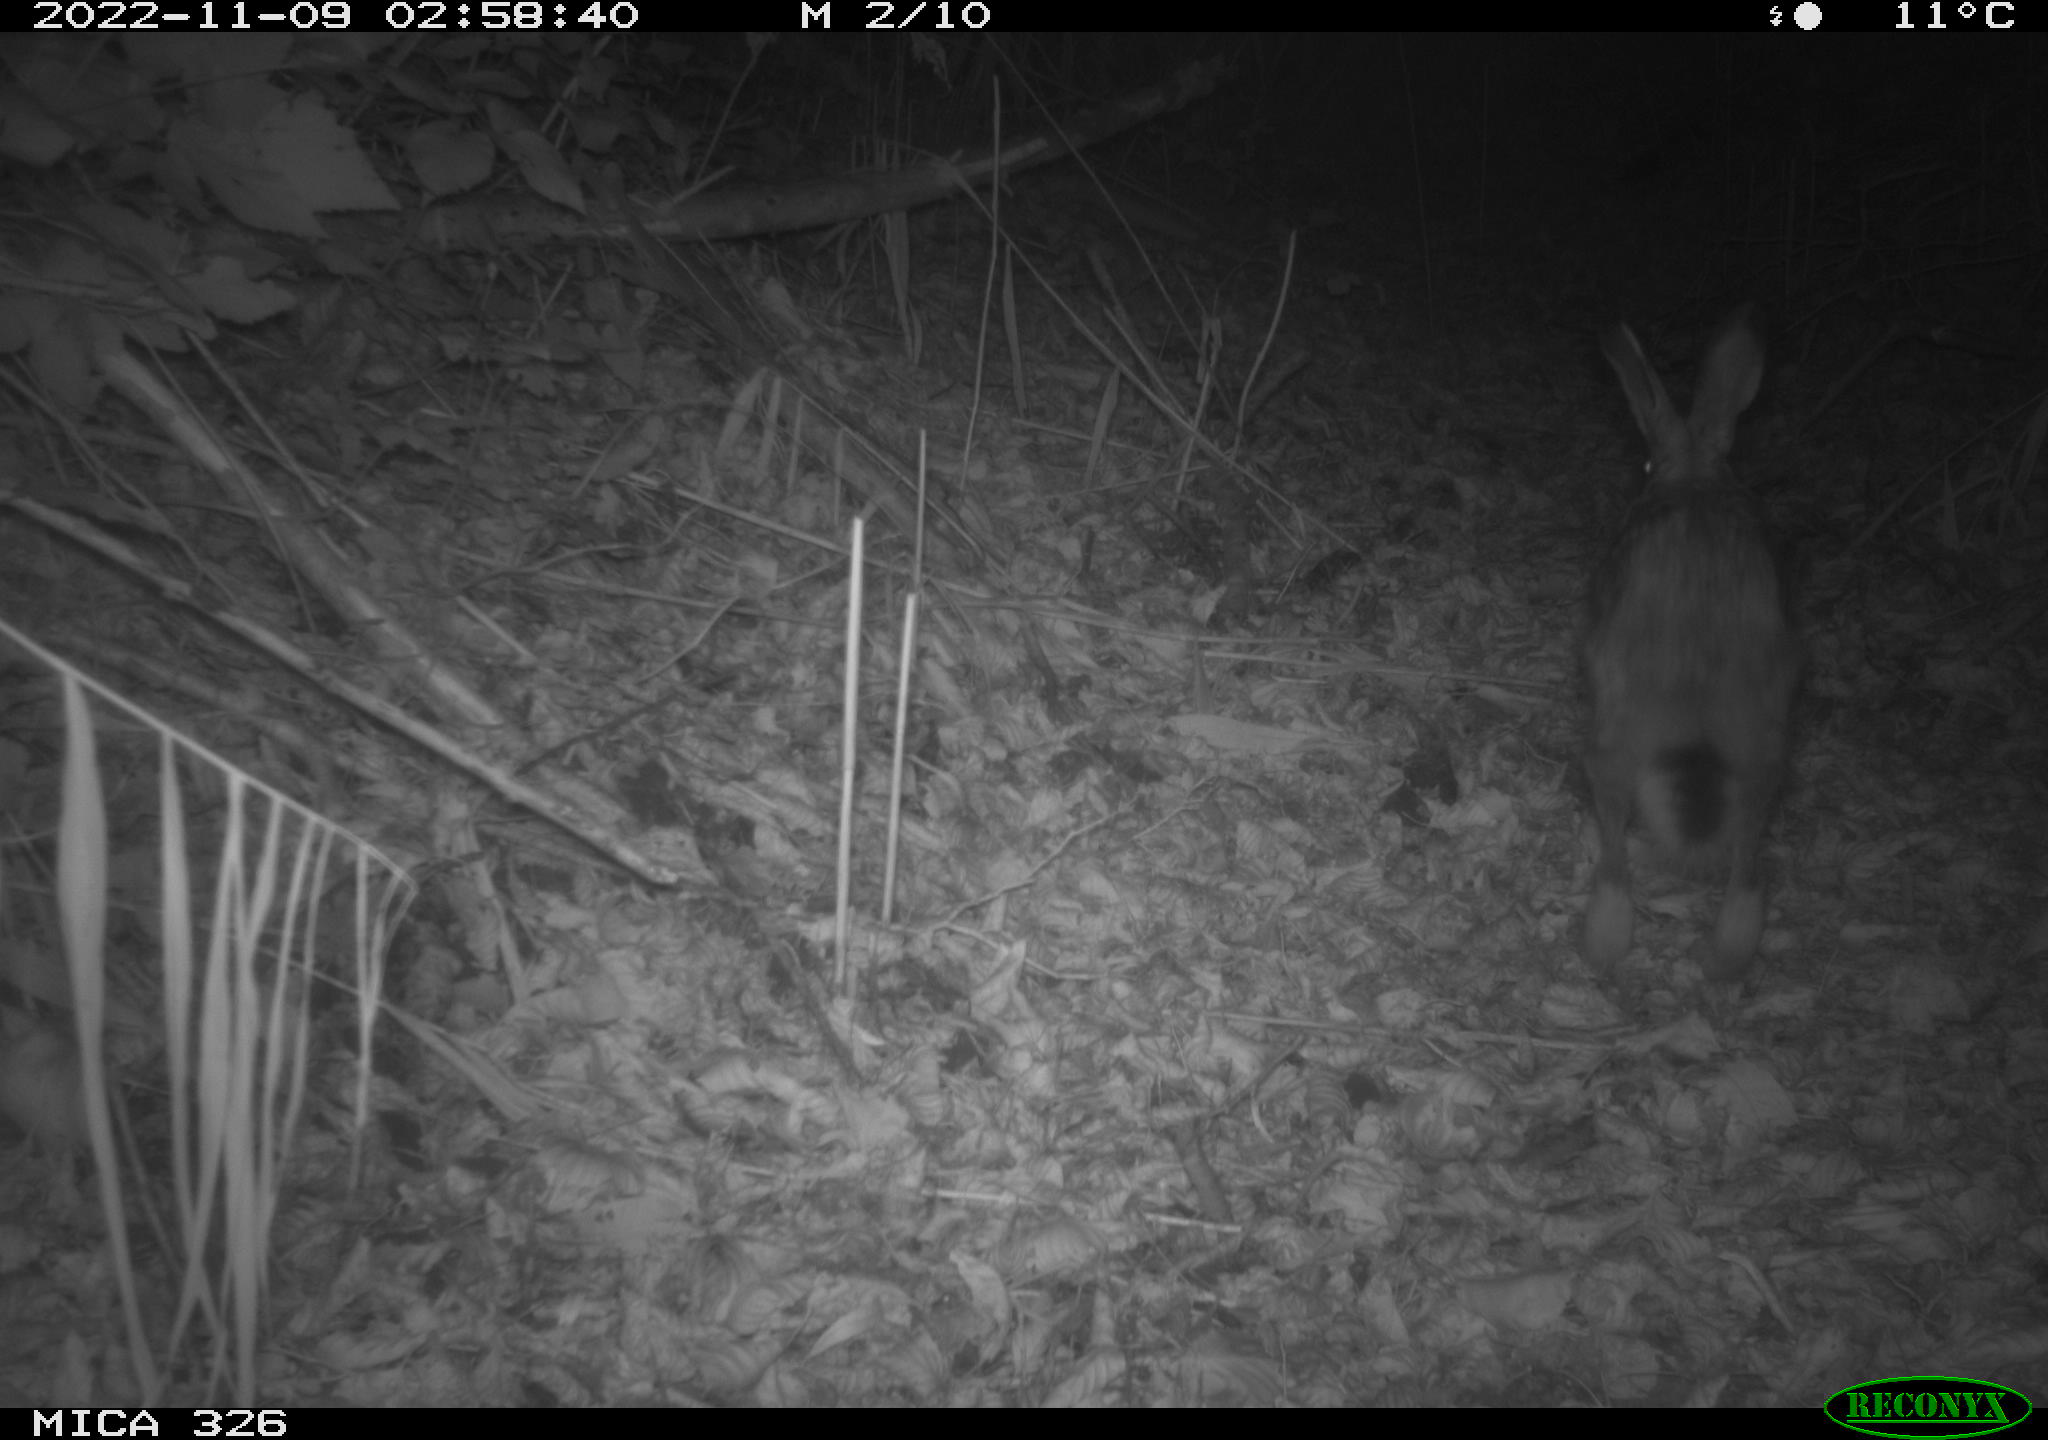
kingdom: Animalia
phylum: Chordata
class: Mammalia
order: Lagomorpha
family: Leporidae
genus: Lepus
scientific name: Lepus europaeus
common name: European hare
